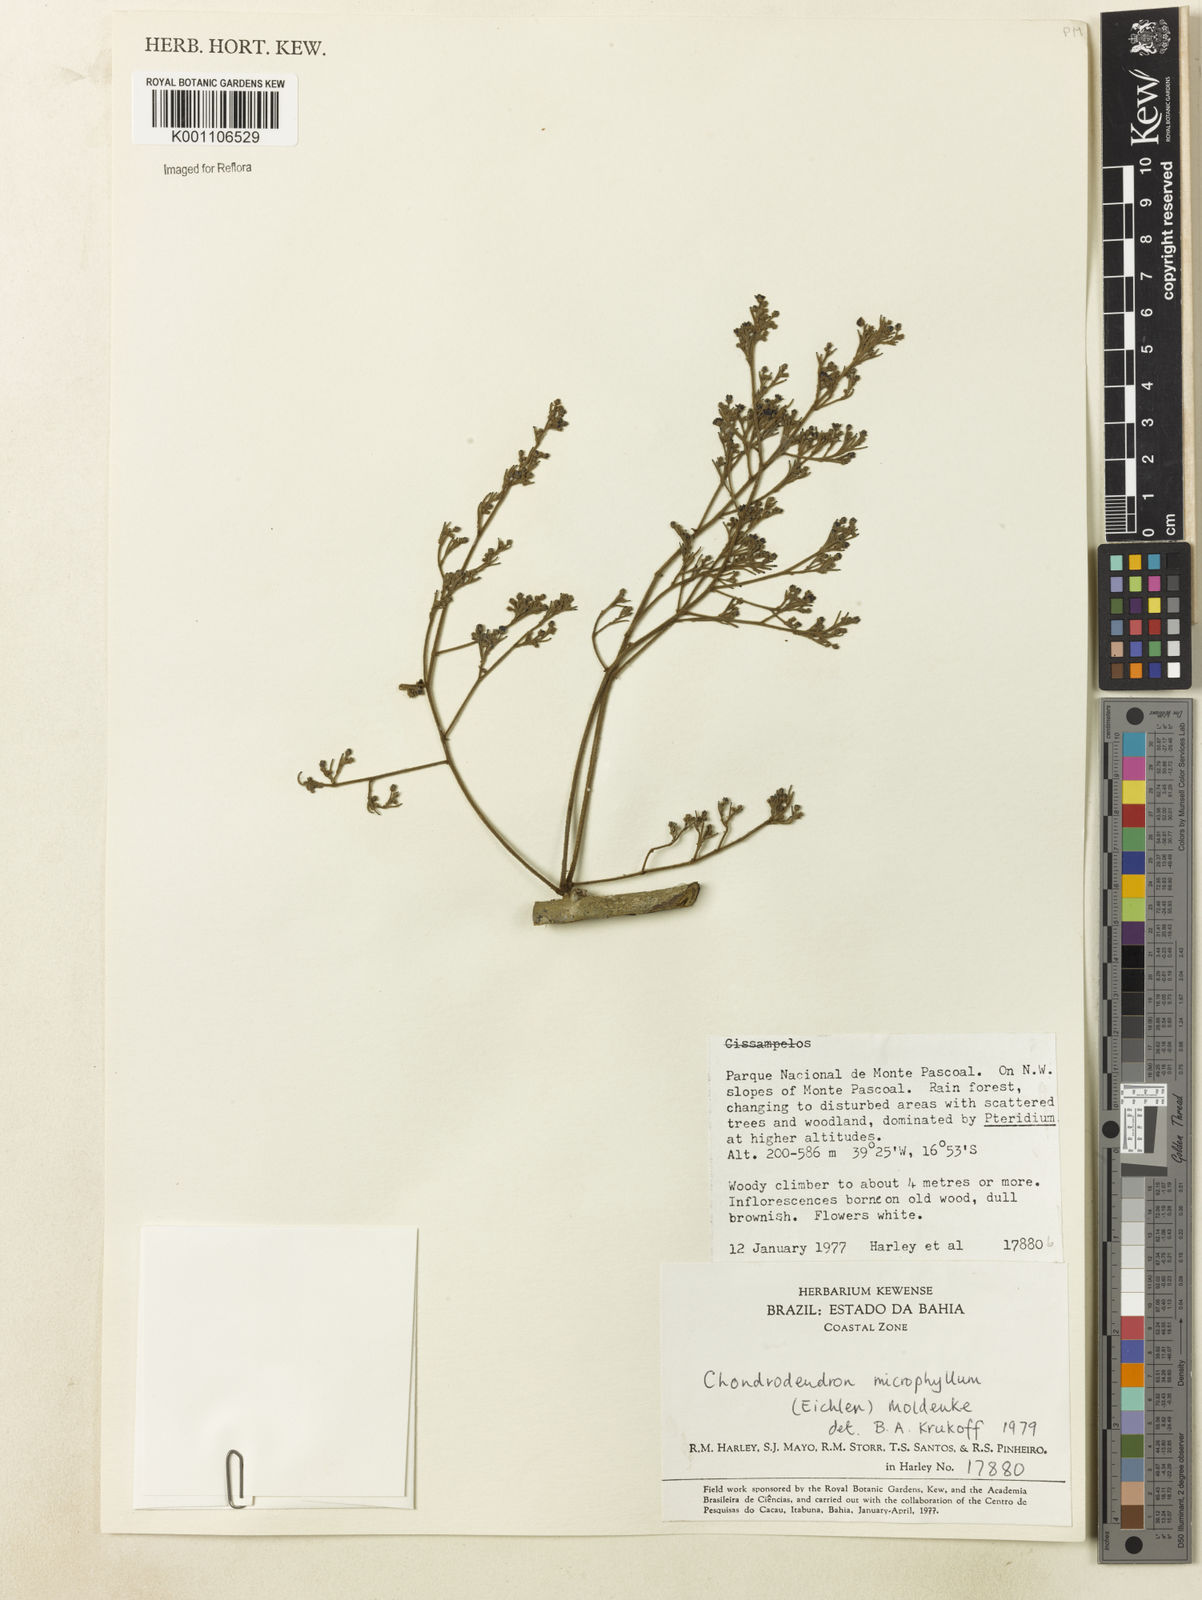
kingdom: Plantae
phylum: Tracheophyta
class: Magnoliopsida
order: Ranunculales
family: Menispermaceae
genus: Chondrodendron
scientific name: Chondrodendron microphyllum
